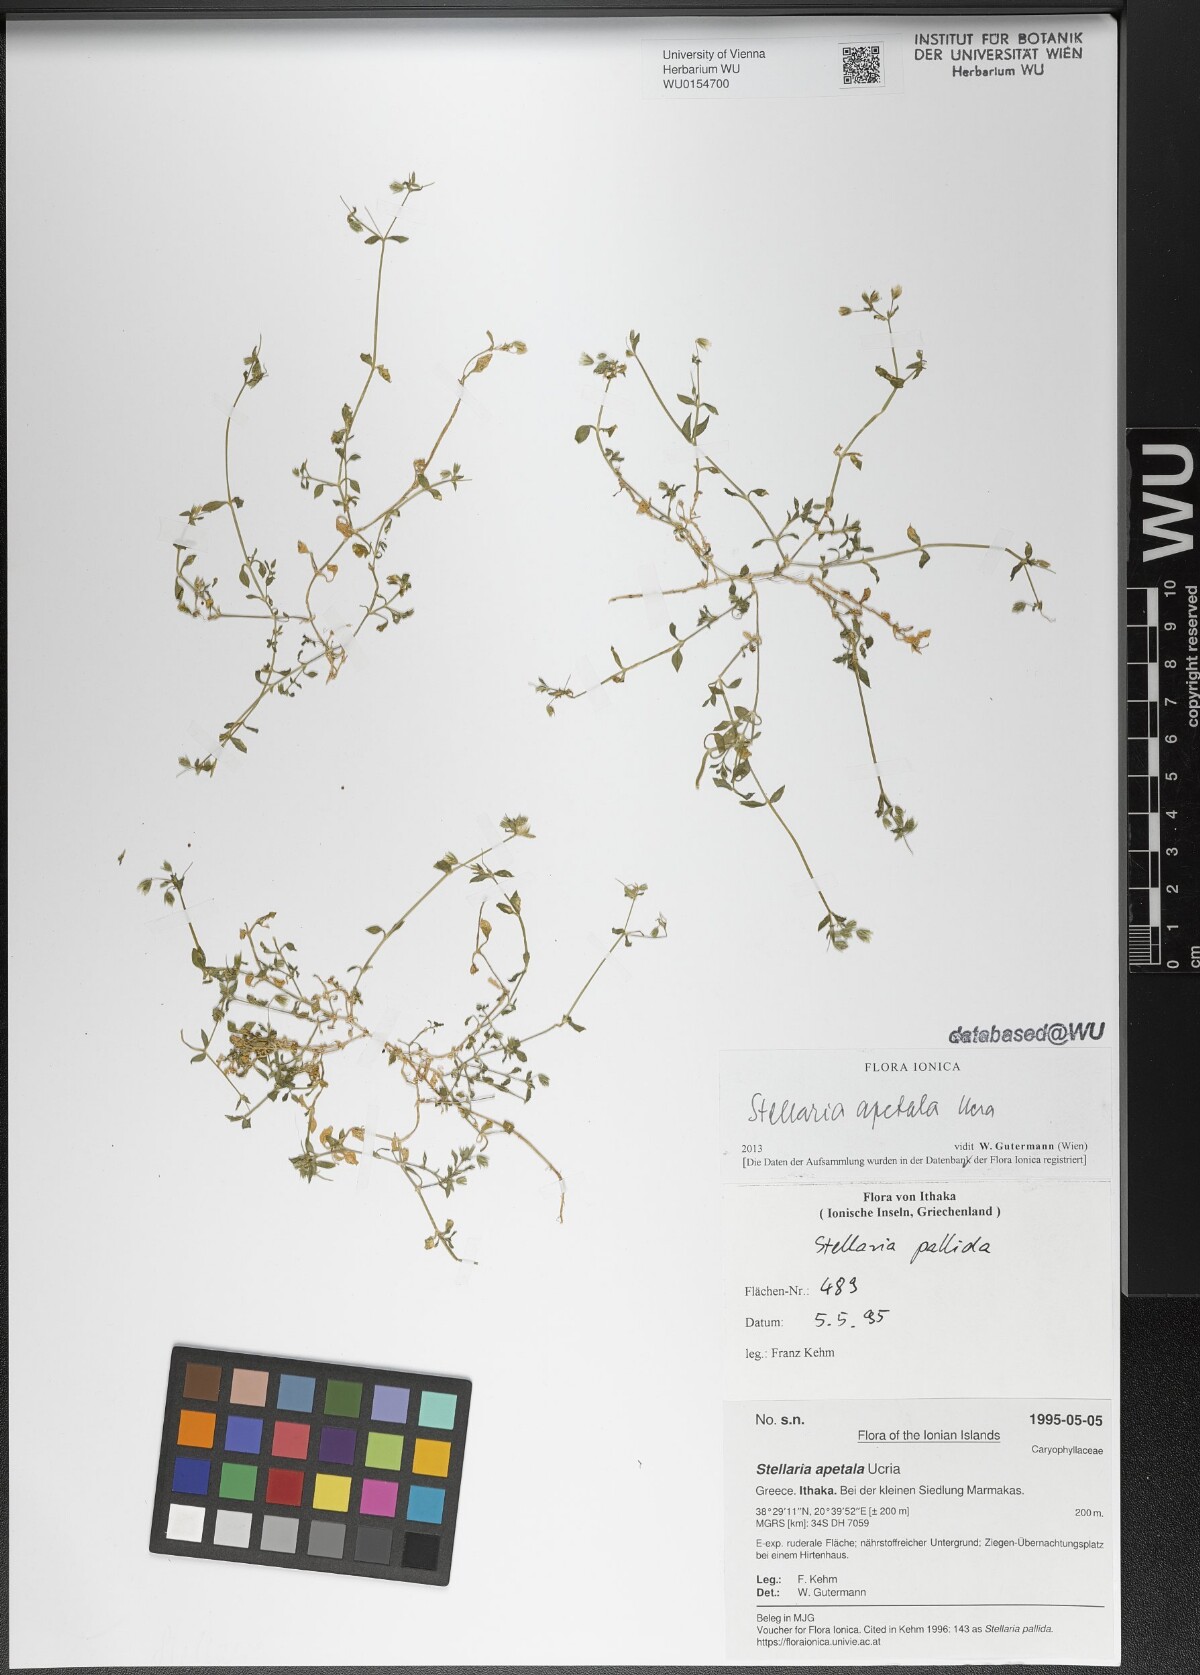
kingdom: Plantae
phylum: Tracheophyta
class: Magnoliopsida
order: Caryophyllales
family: Caryophyllaceae
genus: Stellaria
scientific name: Stellaria apetala
